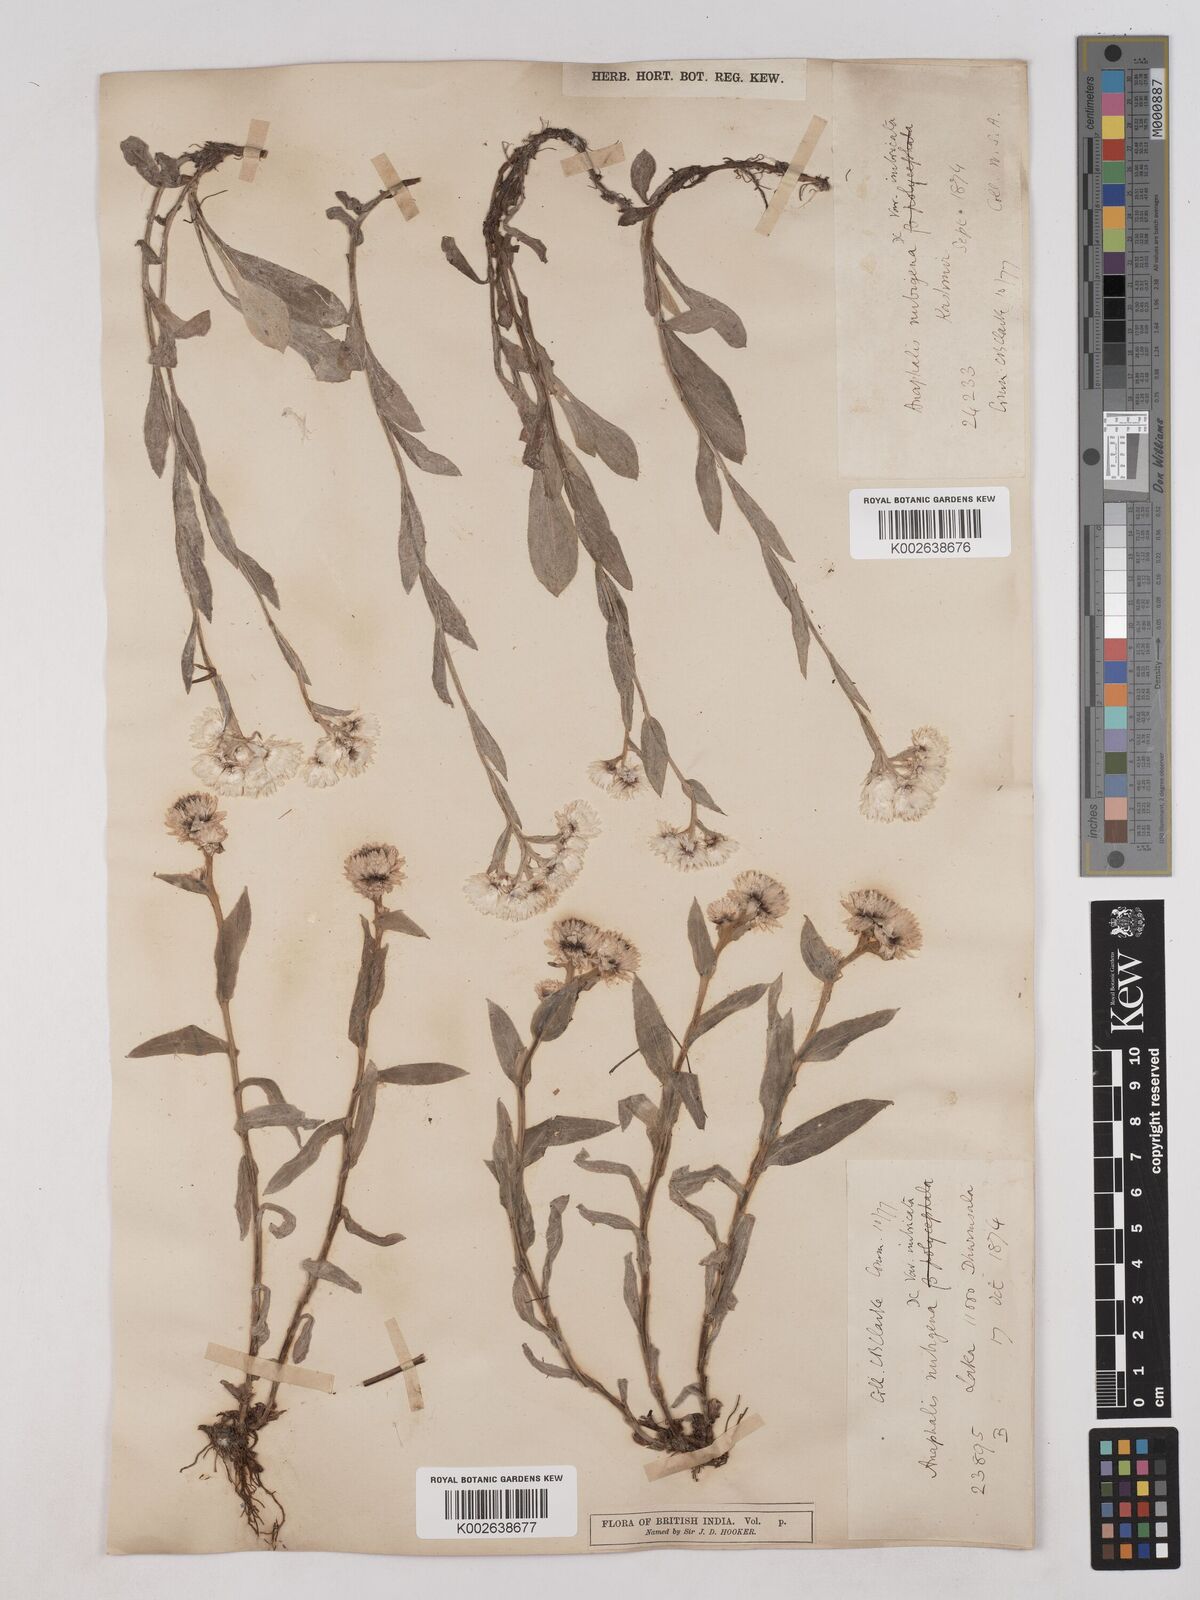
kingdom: Plantae
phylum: Tracheophyta
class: Magnoliopsida
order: Asterales
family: Asteraceae
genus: Anaphalis
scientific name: Anaphalis nepalensis
